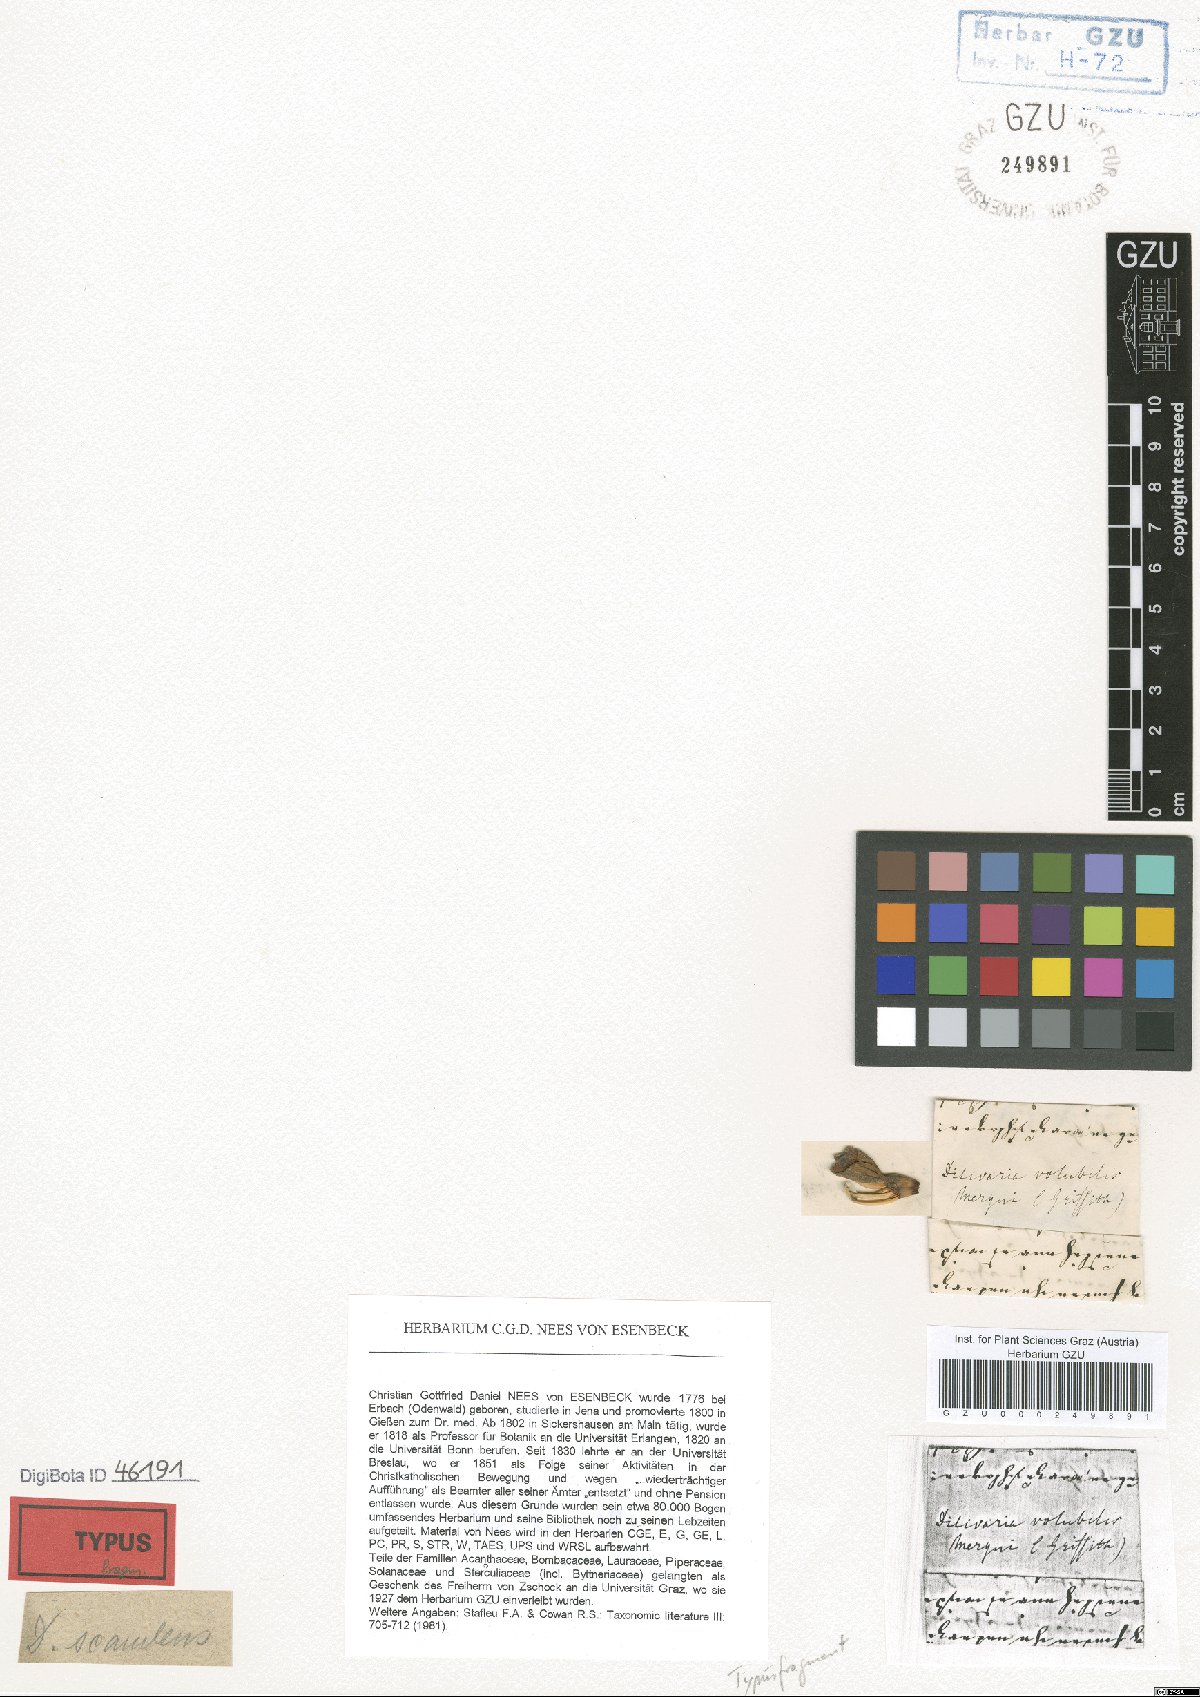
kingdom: Plantae
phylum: Tracheophyta
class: Magnoliopsida
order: Lamiales
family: Acanthaceae
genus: Acanthus
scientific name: Acanthus volubilis
